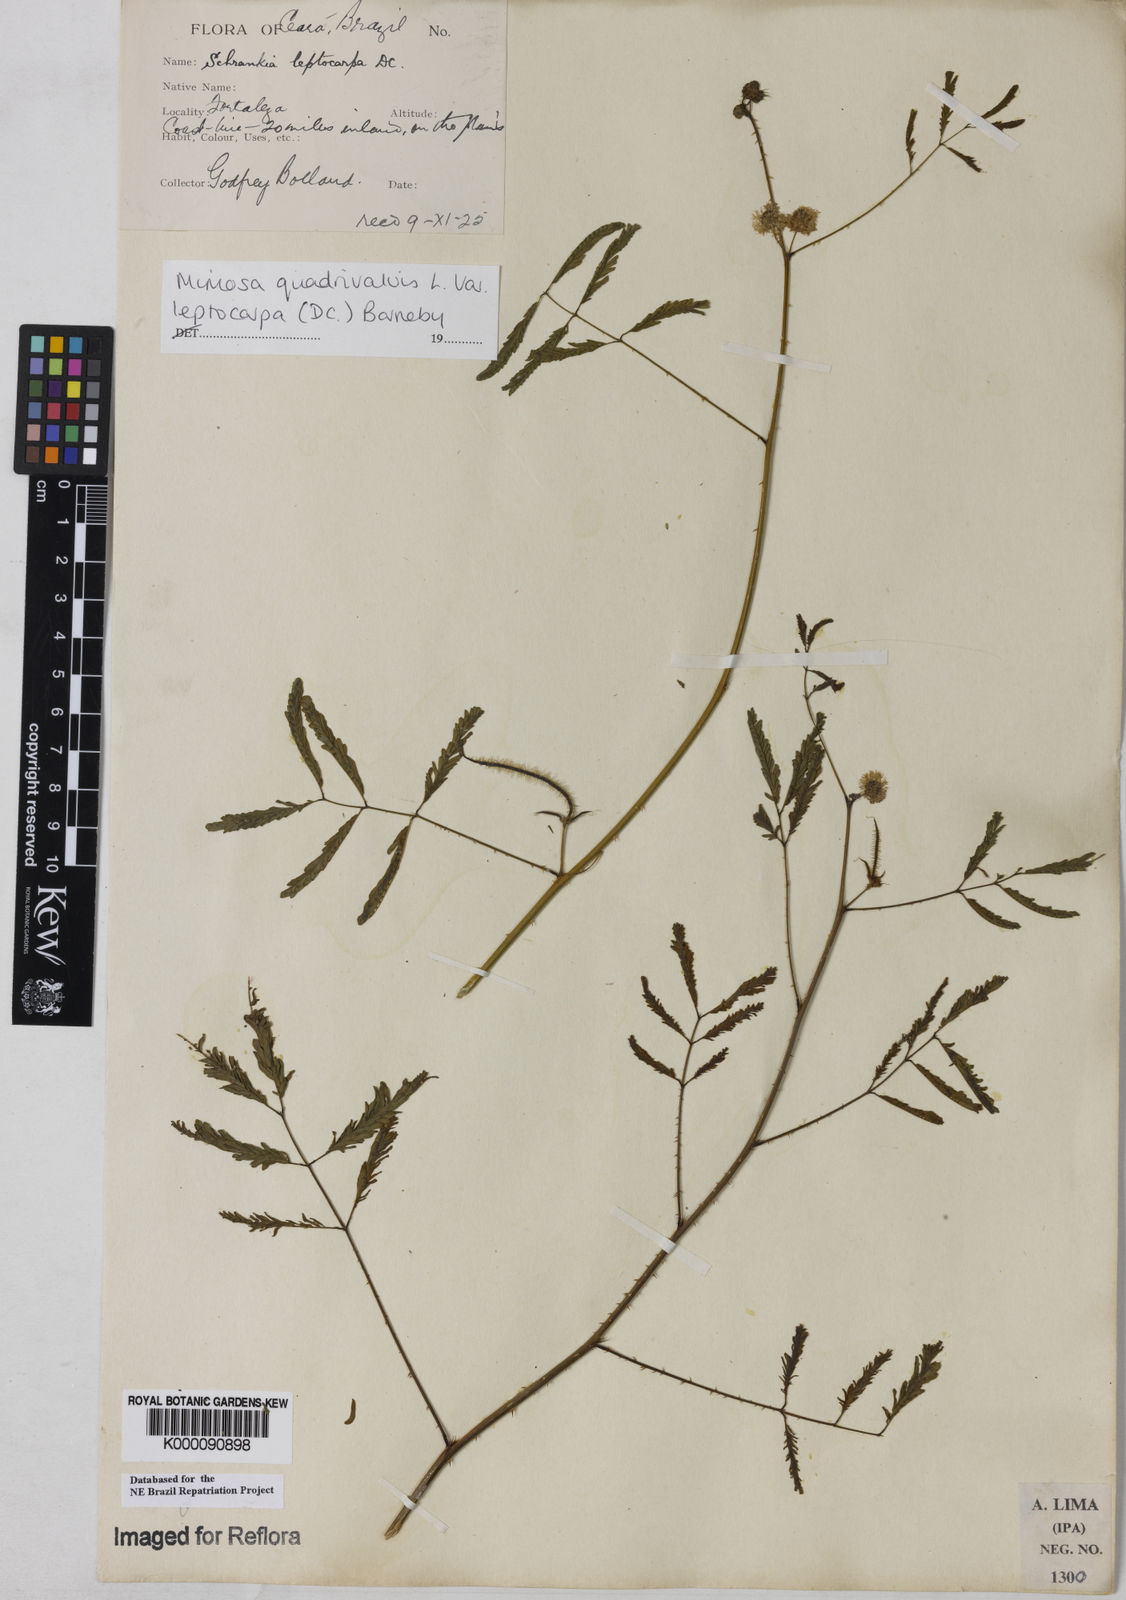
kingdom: Plantae
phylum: Tracheophyta
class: Magnoliopsida
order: Fabales
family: Fabaceae
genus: Mimosa
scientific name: Mimosa candollei
